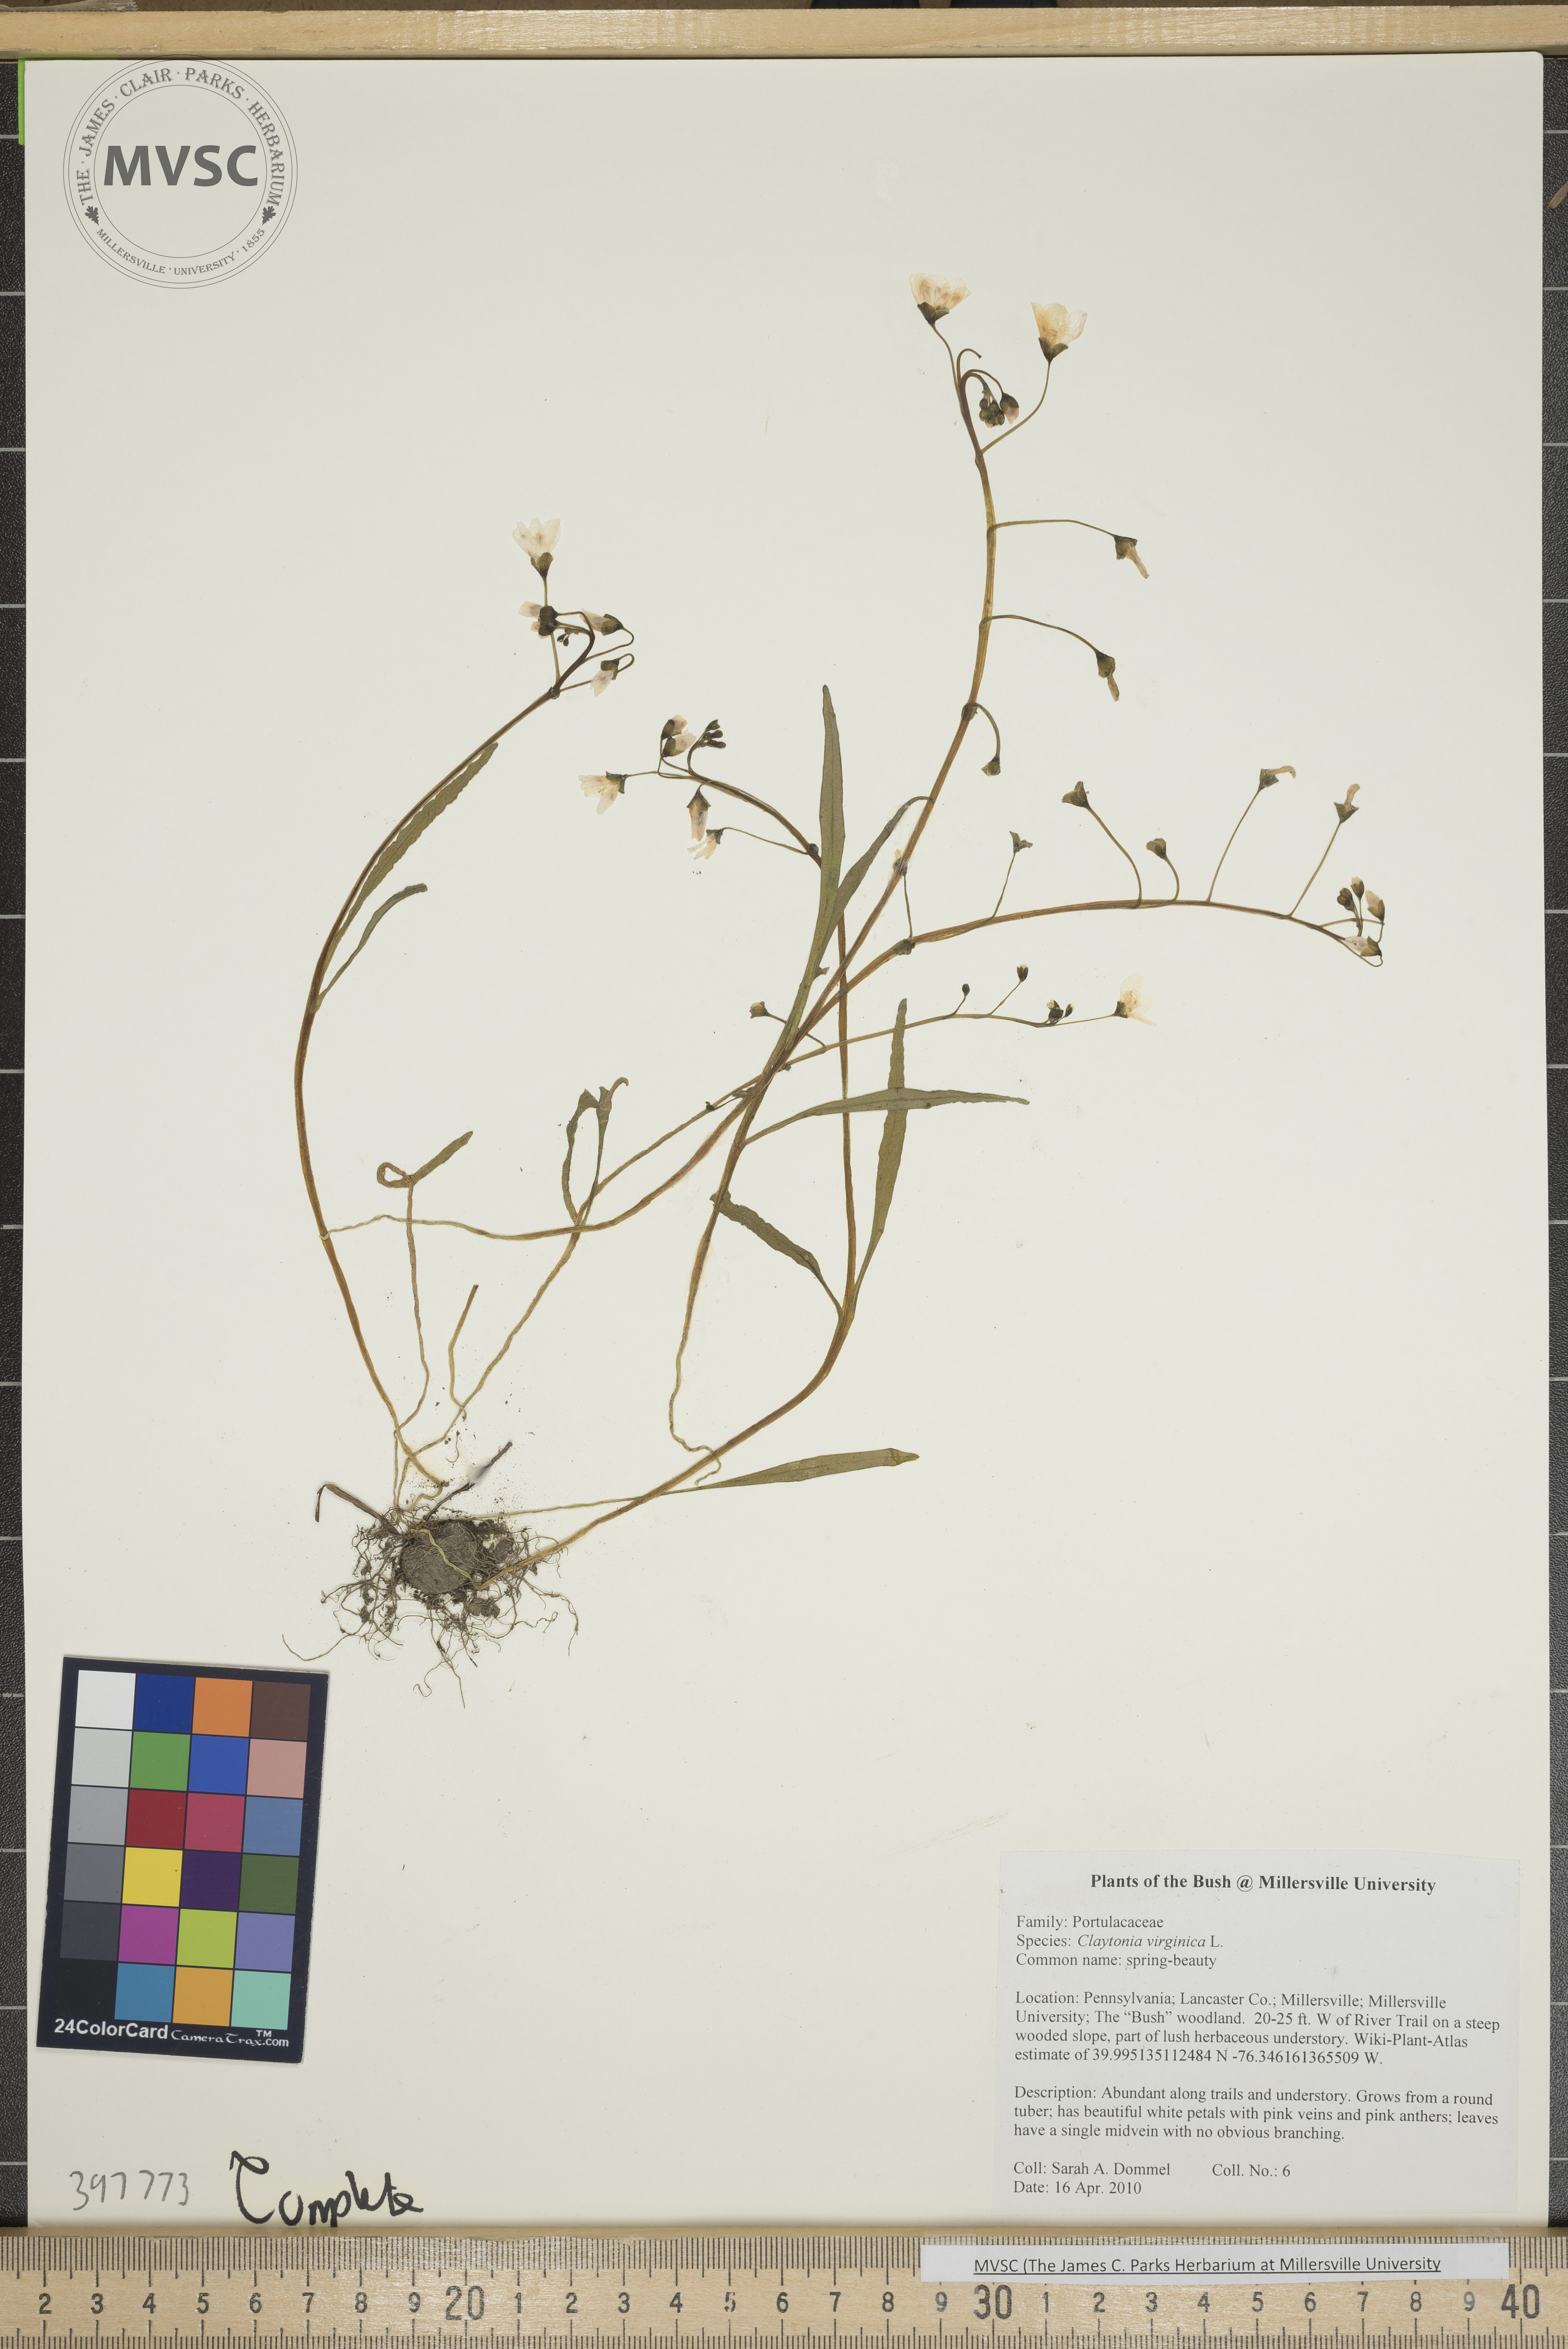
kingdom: Plantae
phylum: Tracheophyta
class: Magnoliopsida
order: Caryophyllales
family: Montiaceae
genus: Claytonia
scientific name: Claytonia virginica
